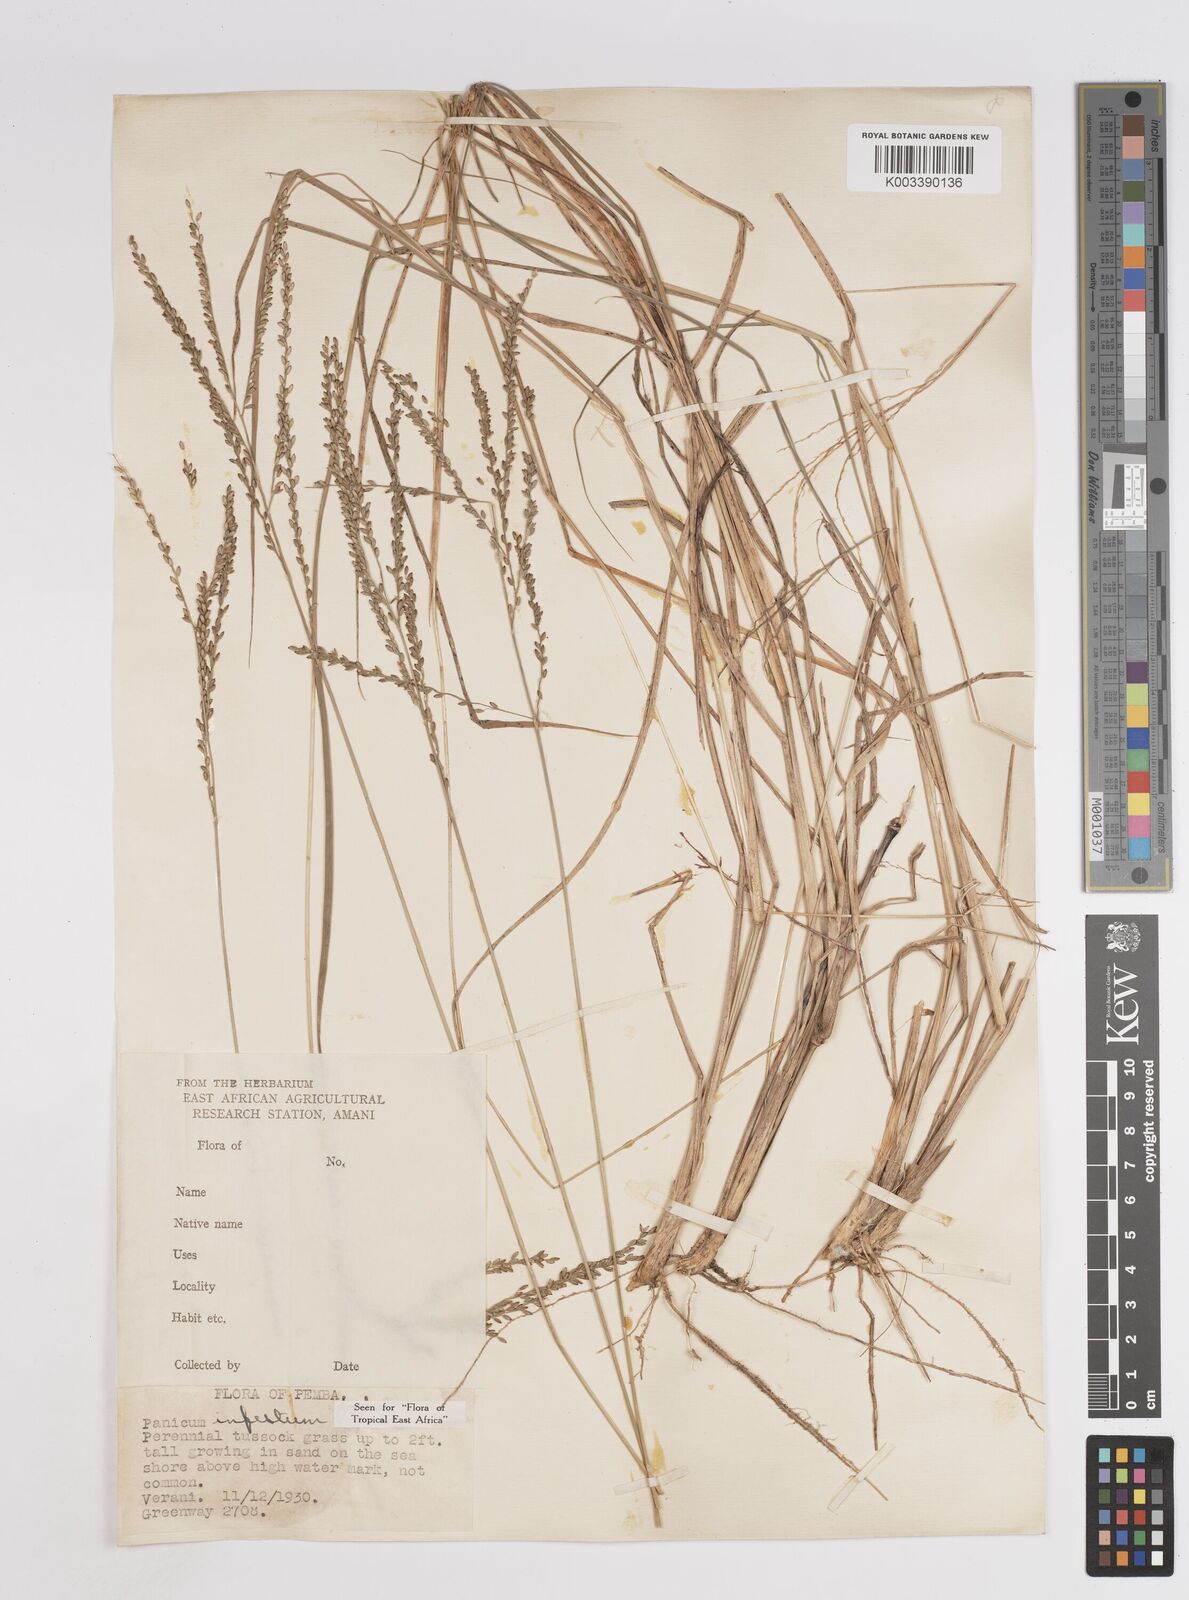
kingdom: Plantae
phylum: Tracheophyta
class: Liliopsida
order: Poales
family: Poaceae
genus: Megathyrsus
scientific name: Megathyrsus infestus
